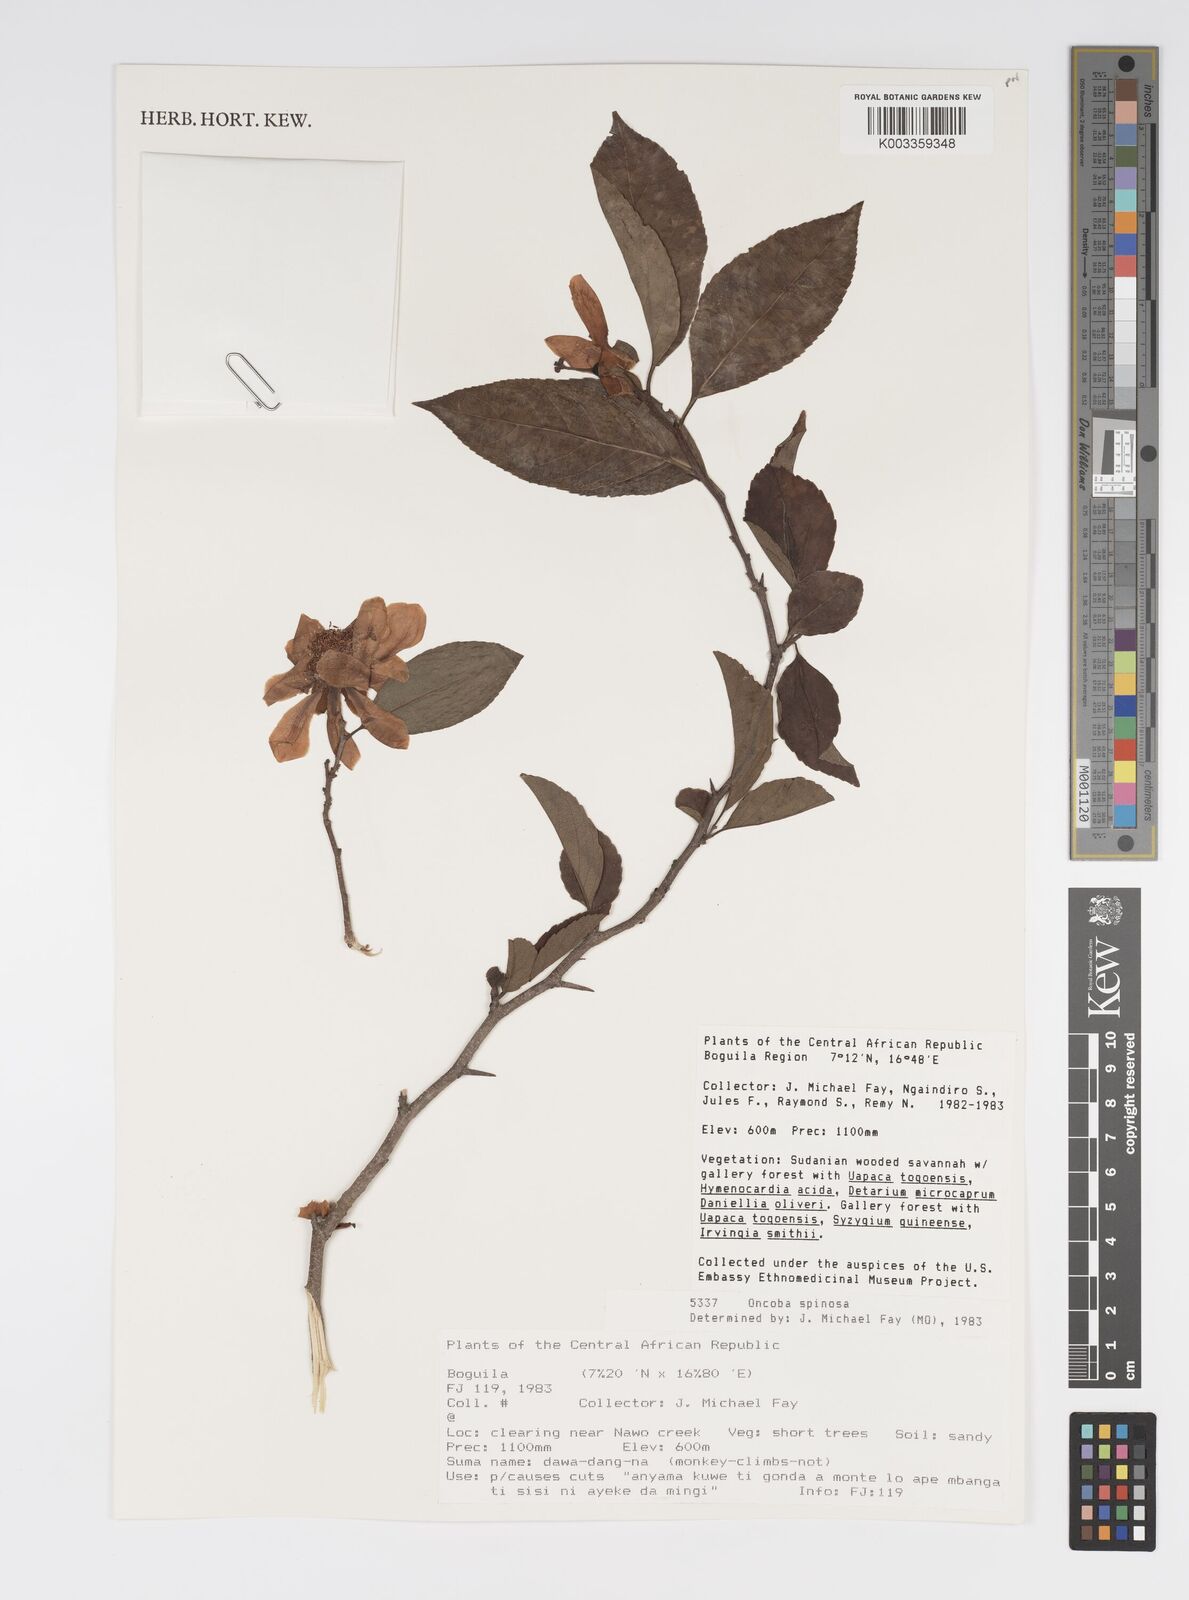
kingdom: Plantae
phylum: Tracheophyta
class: Magnoliopsida
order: Malpighiales
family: Salicaceae
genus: Oncoba
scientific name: Oncoba spinosa
